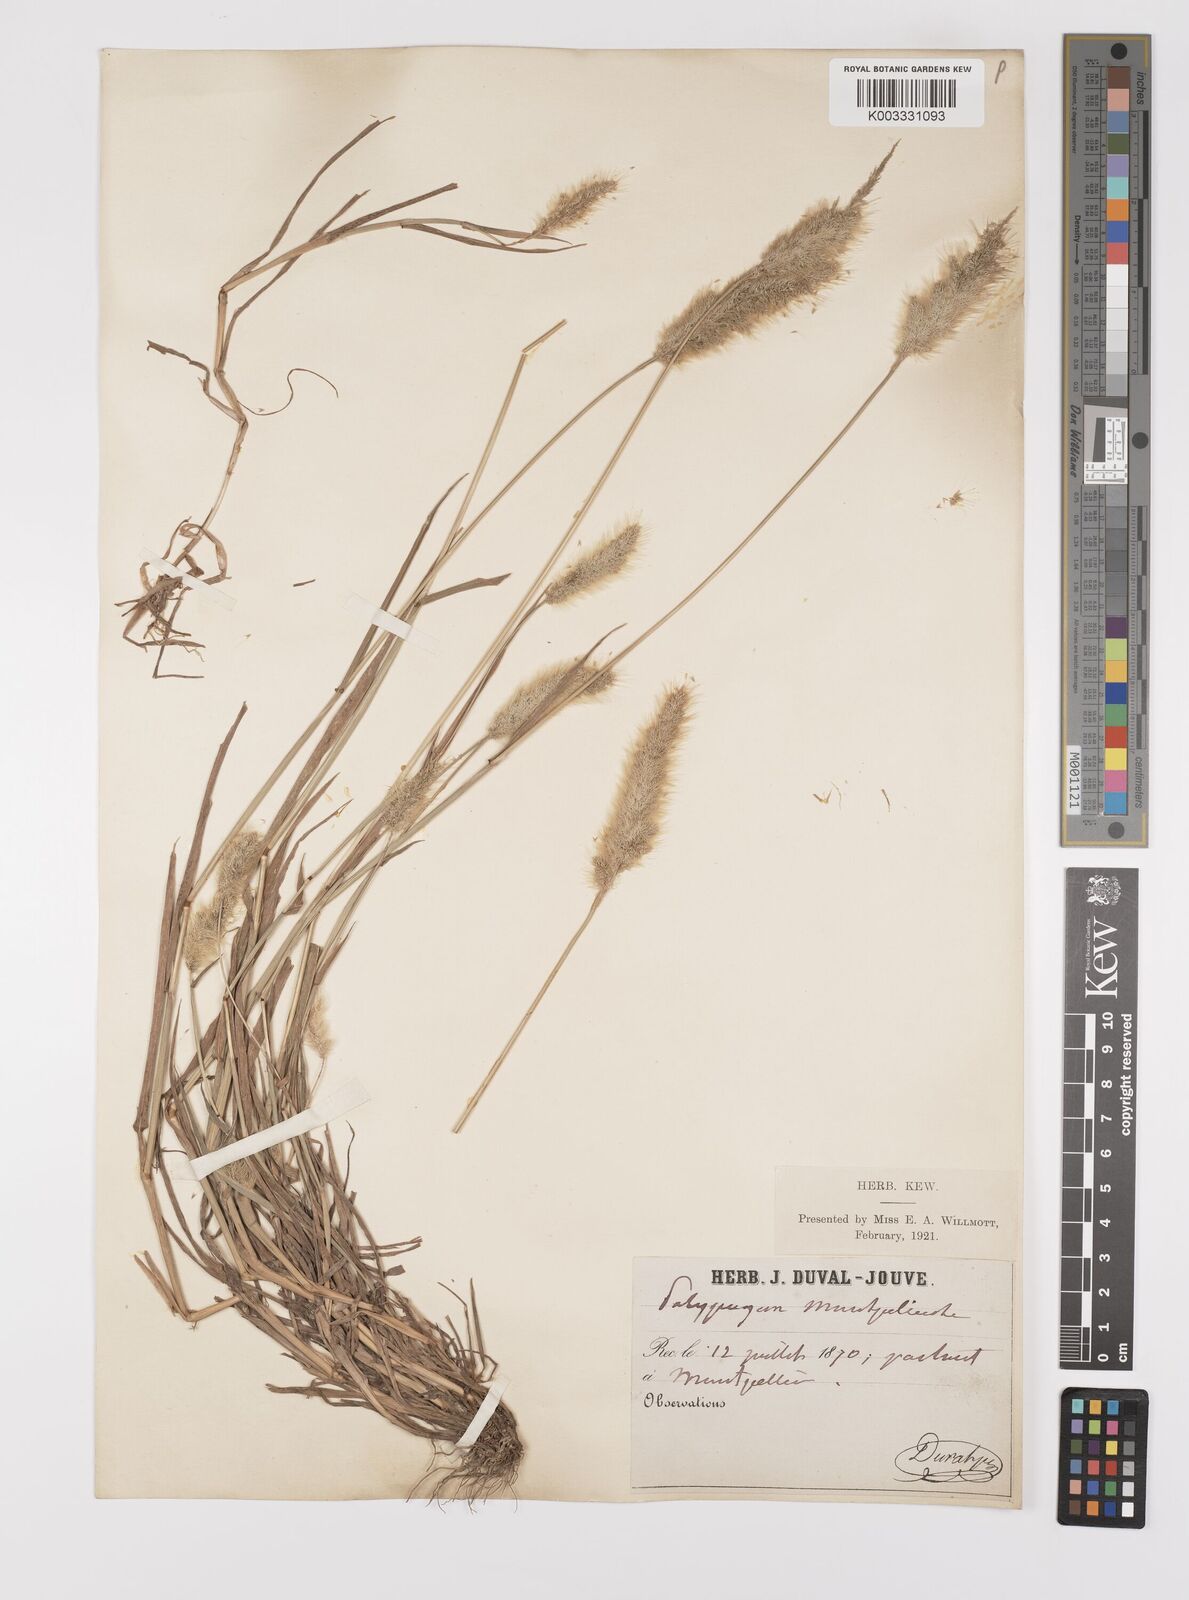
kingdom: Plantae
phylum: Tracheophyta
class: Liliopsida
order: Poales
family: Poaceae
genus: Polypogon
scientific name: Polypogon monspeliensis
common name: Annual rabbitsfoot grass
